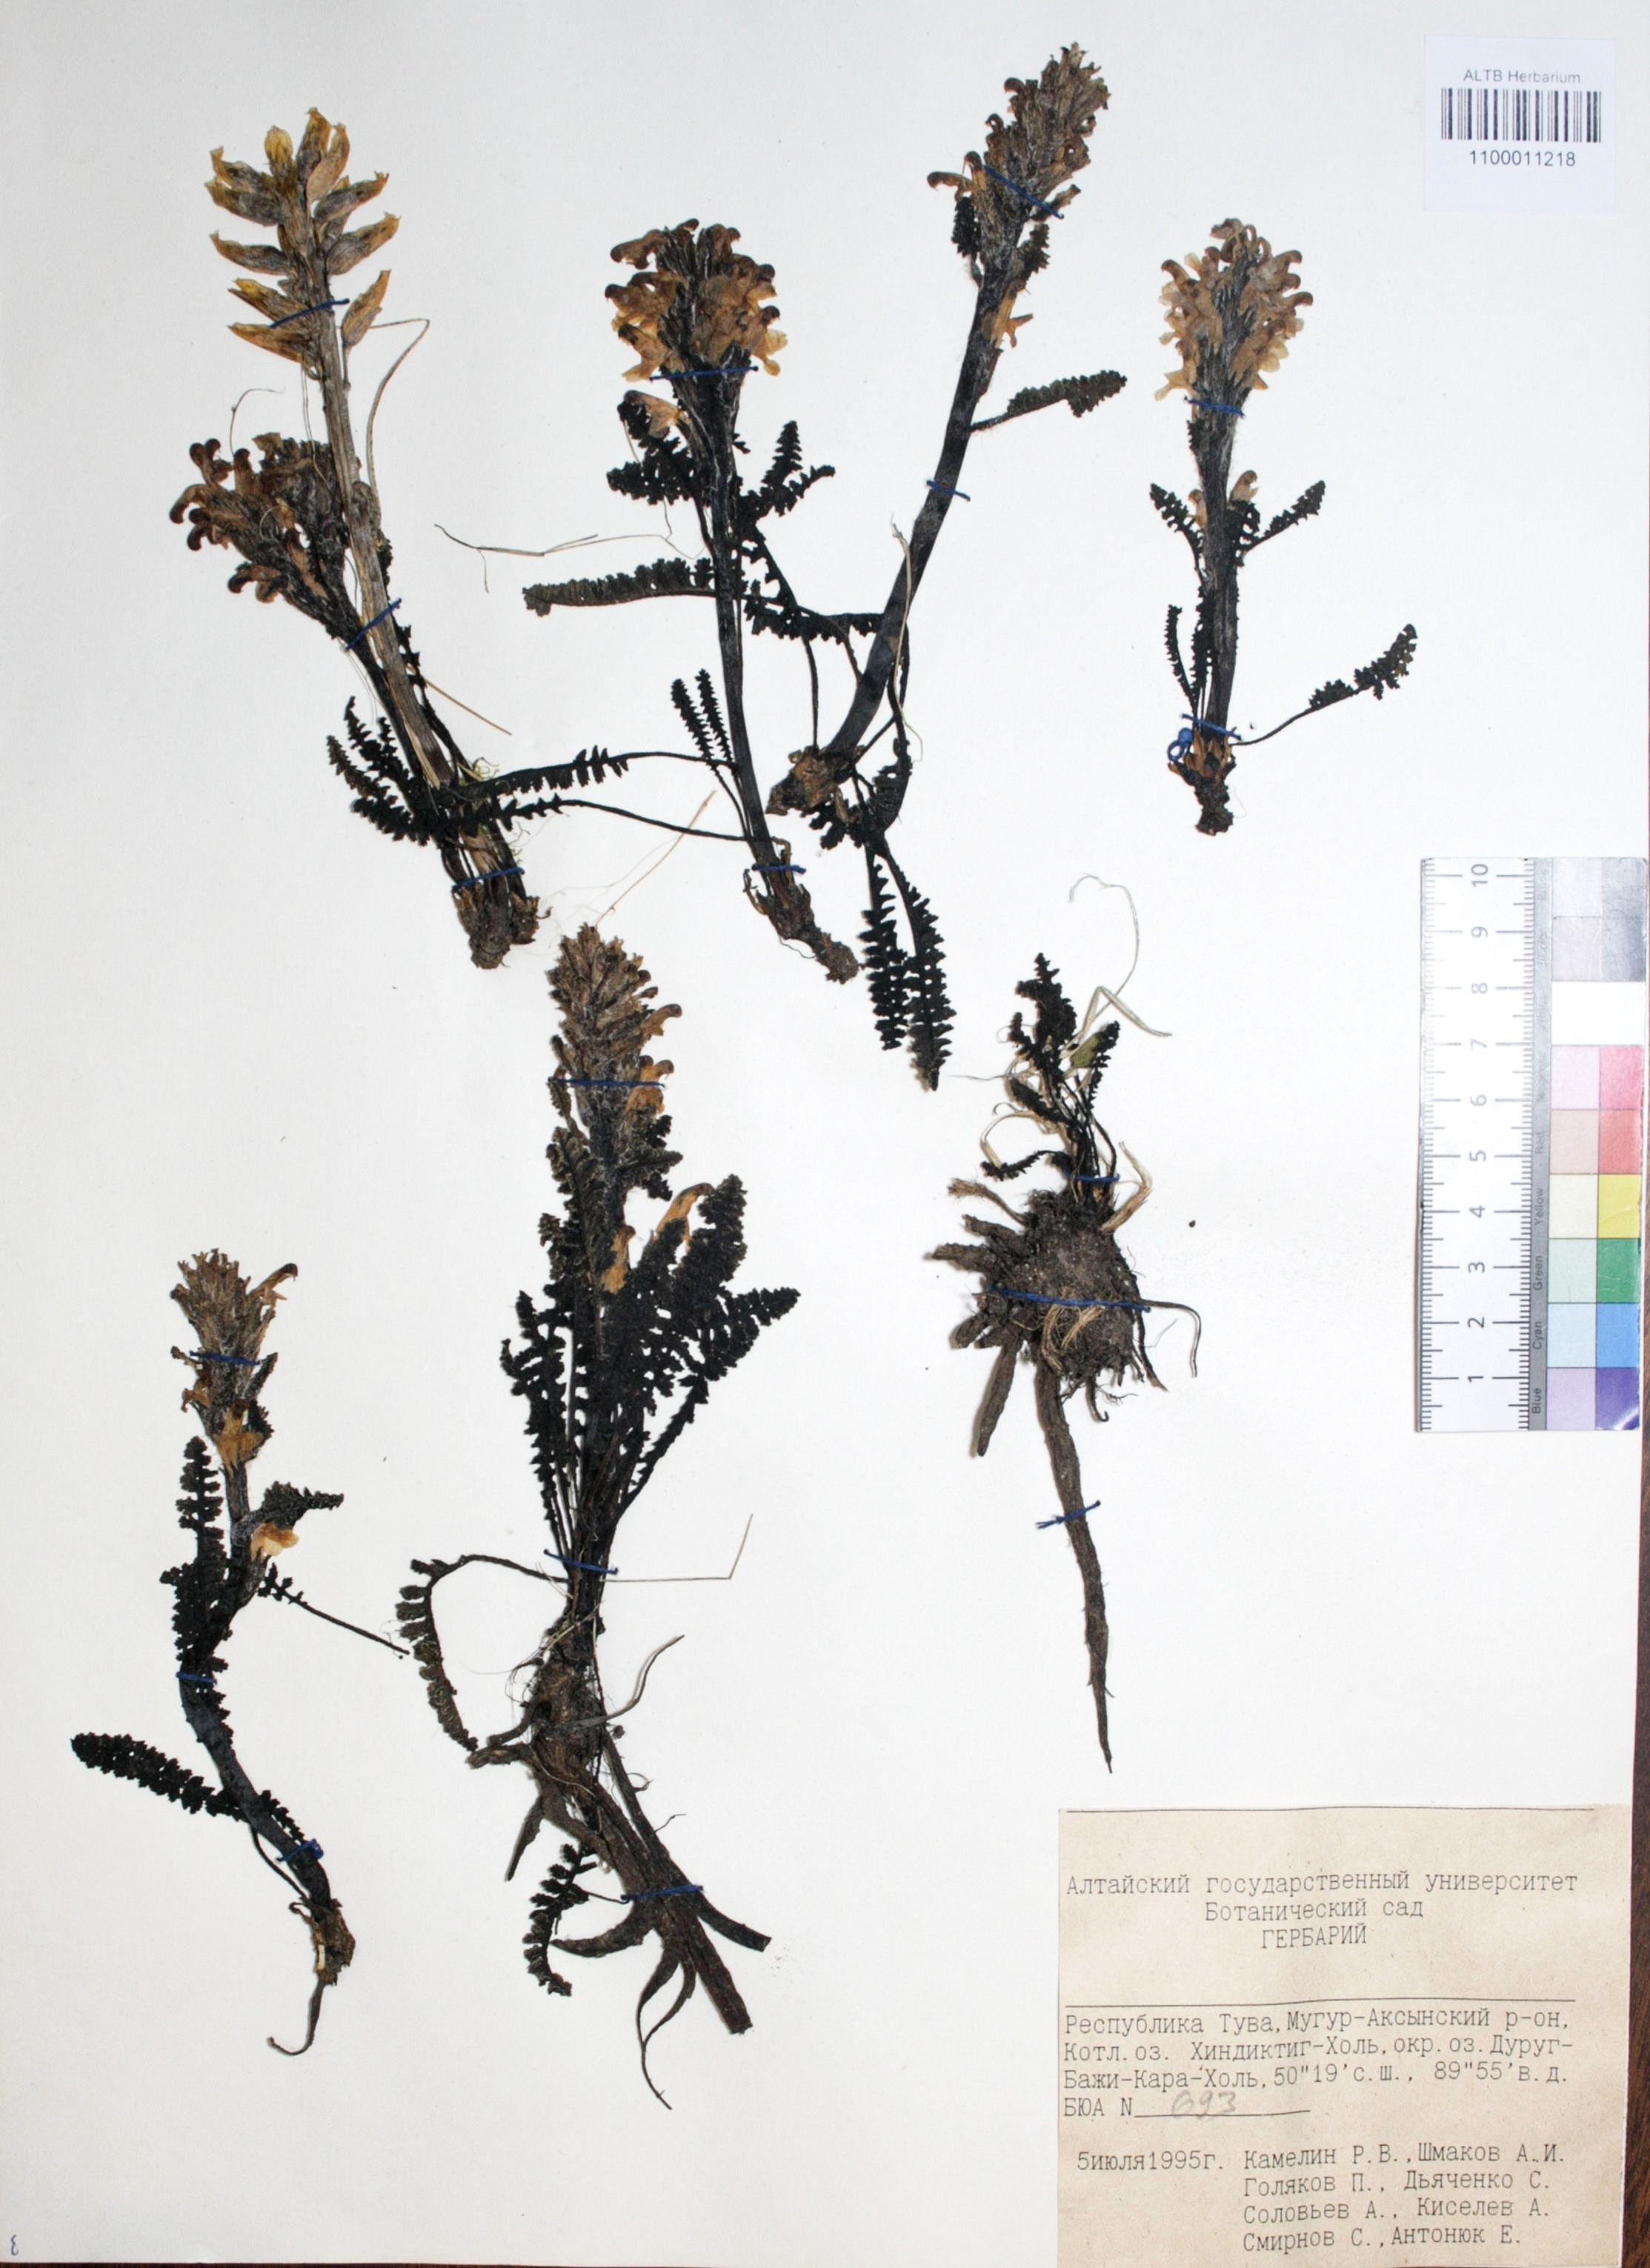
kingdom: Plantae
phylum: Tracheophyta
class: Magnoliopsida
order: Caryophyllales
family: Caryophyllaceae
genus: Silene
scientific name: Silene graminifolia
